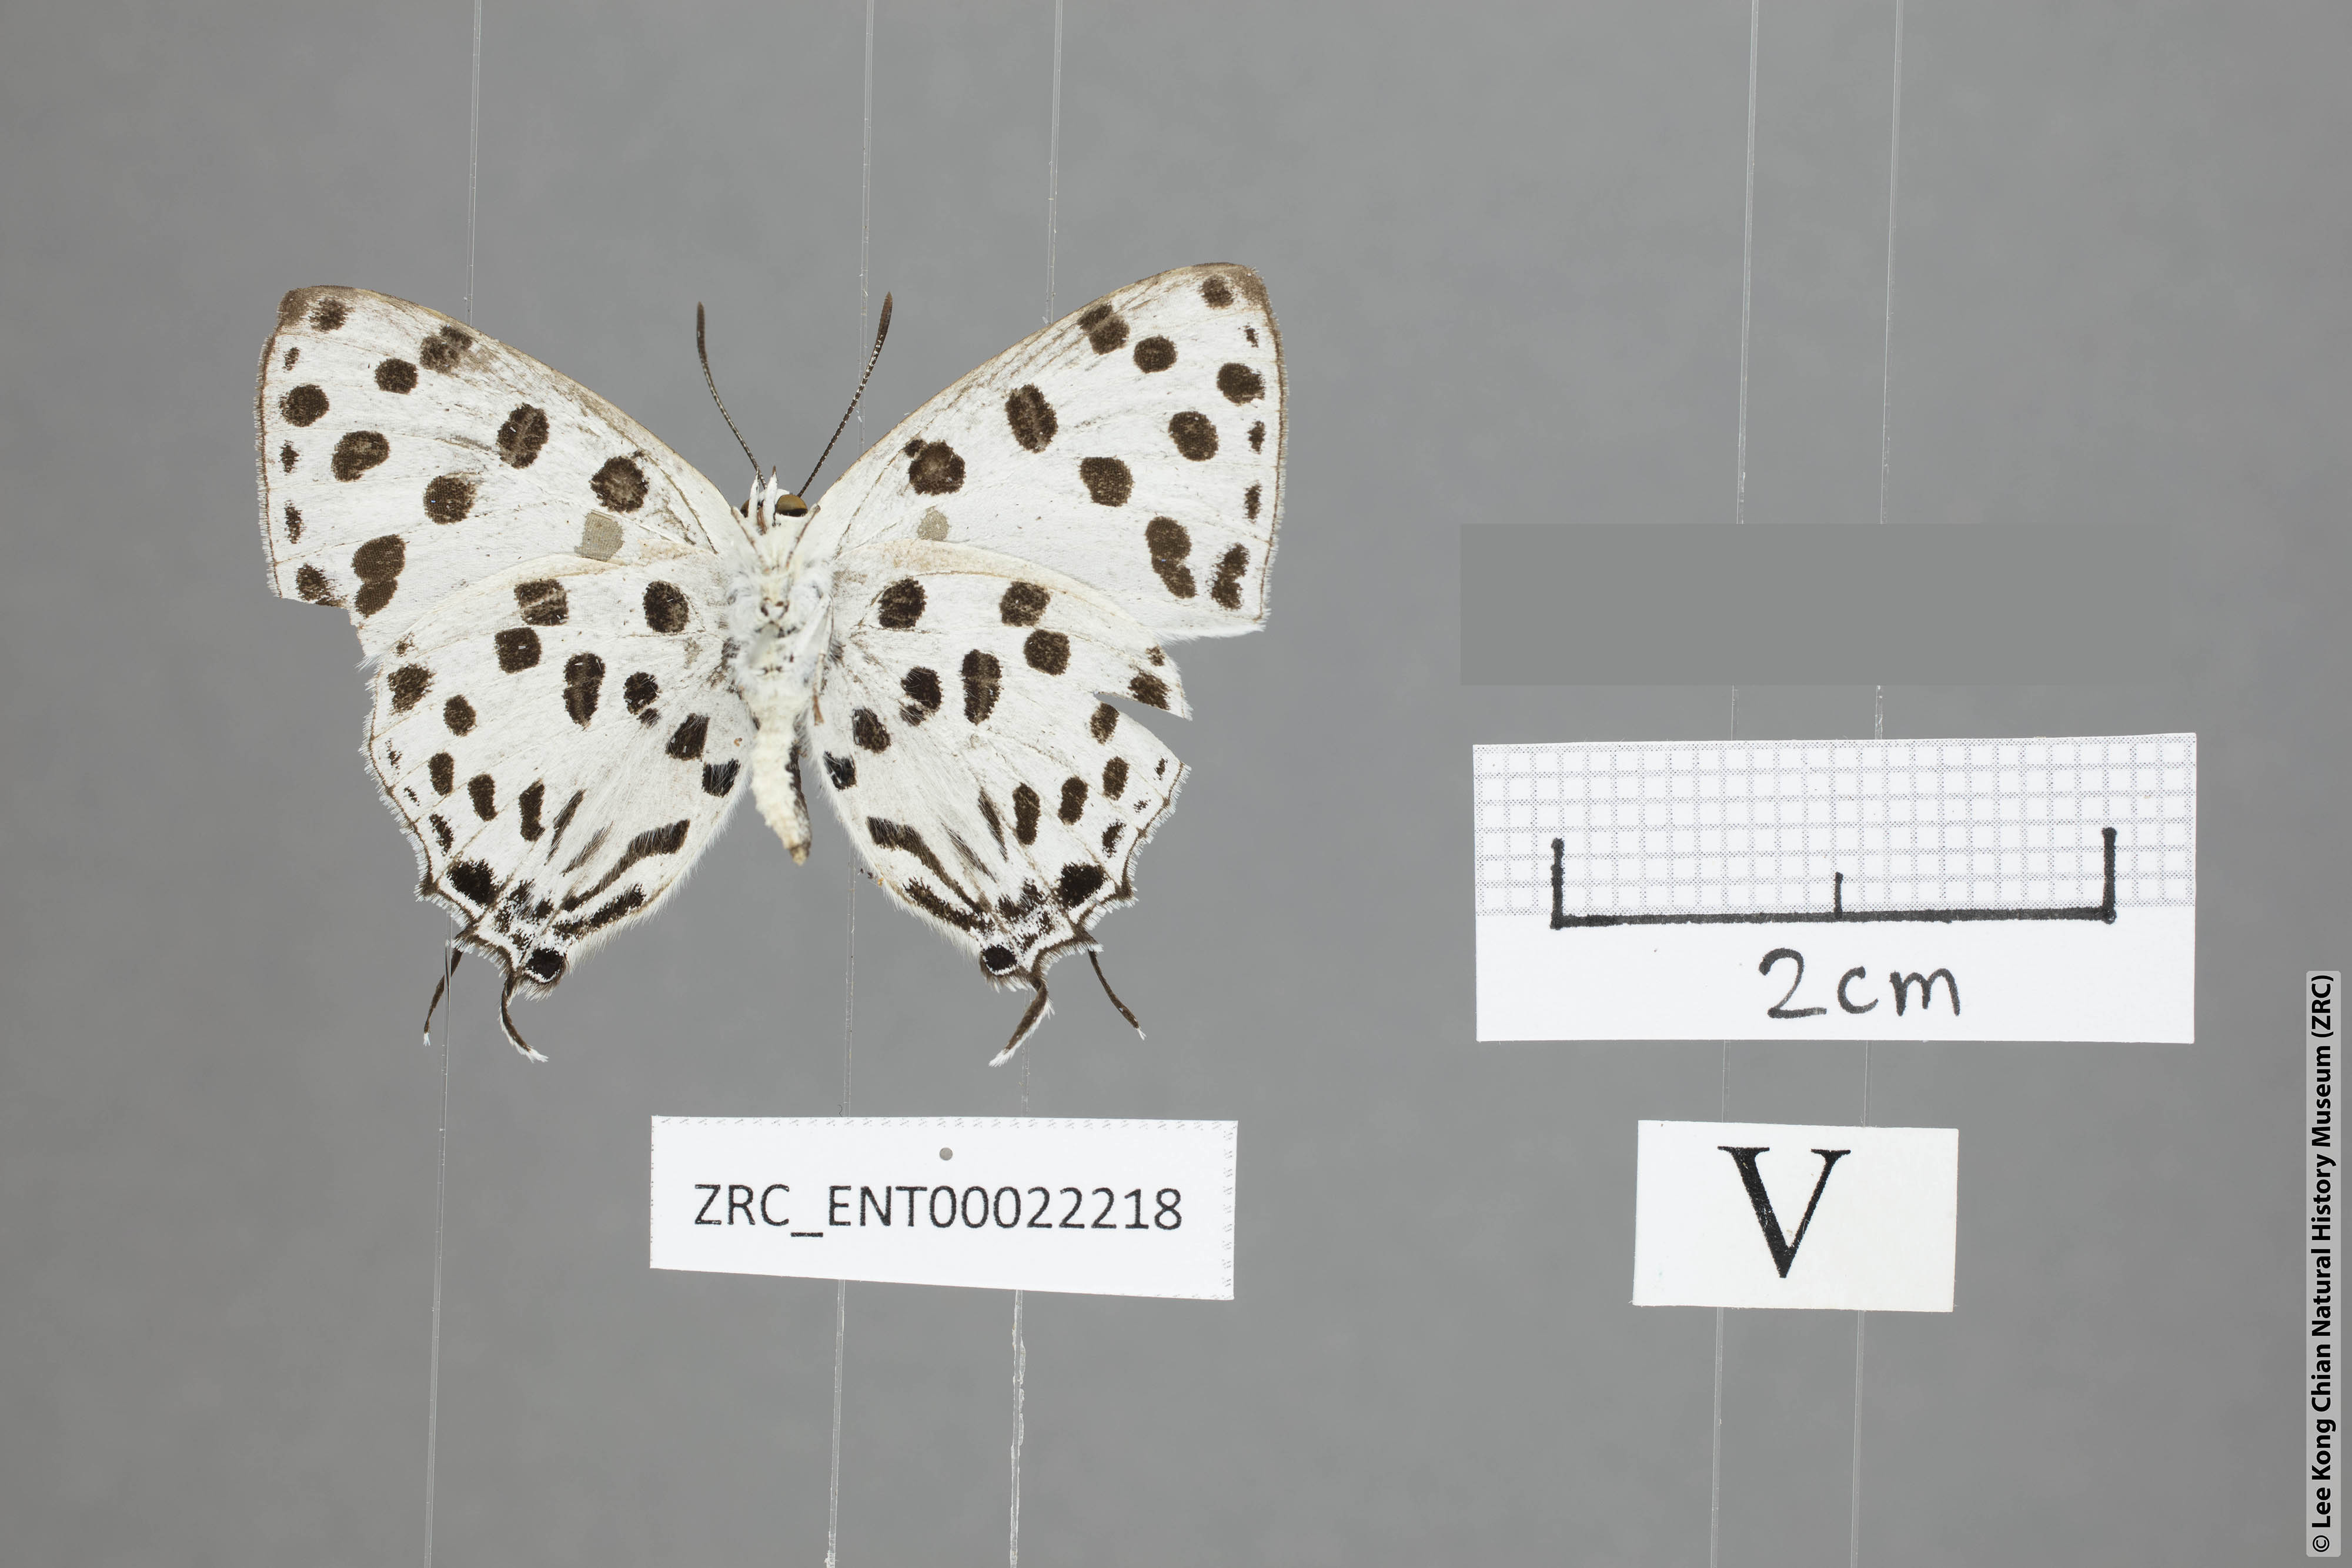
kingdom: Animalia
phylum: Arthropoda
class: Insecta
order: Lepidoptera
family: Lycaenidae
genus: Tajuria
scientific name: Tajuria maculatus
